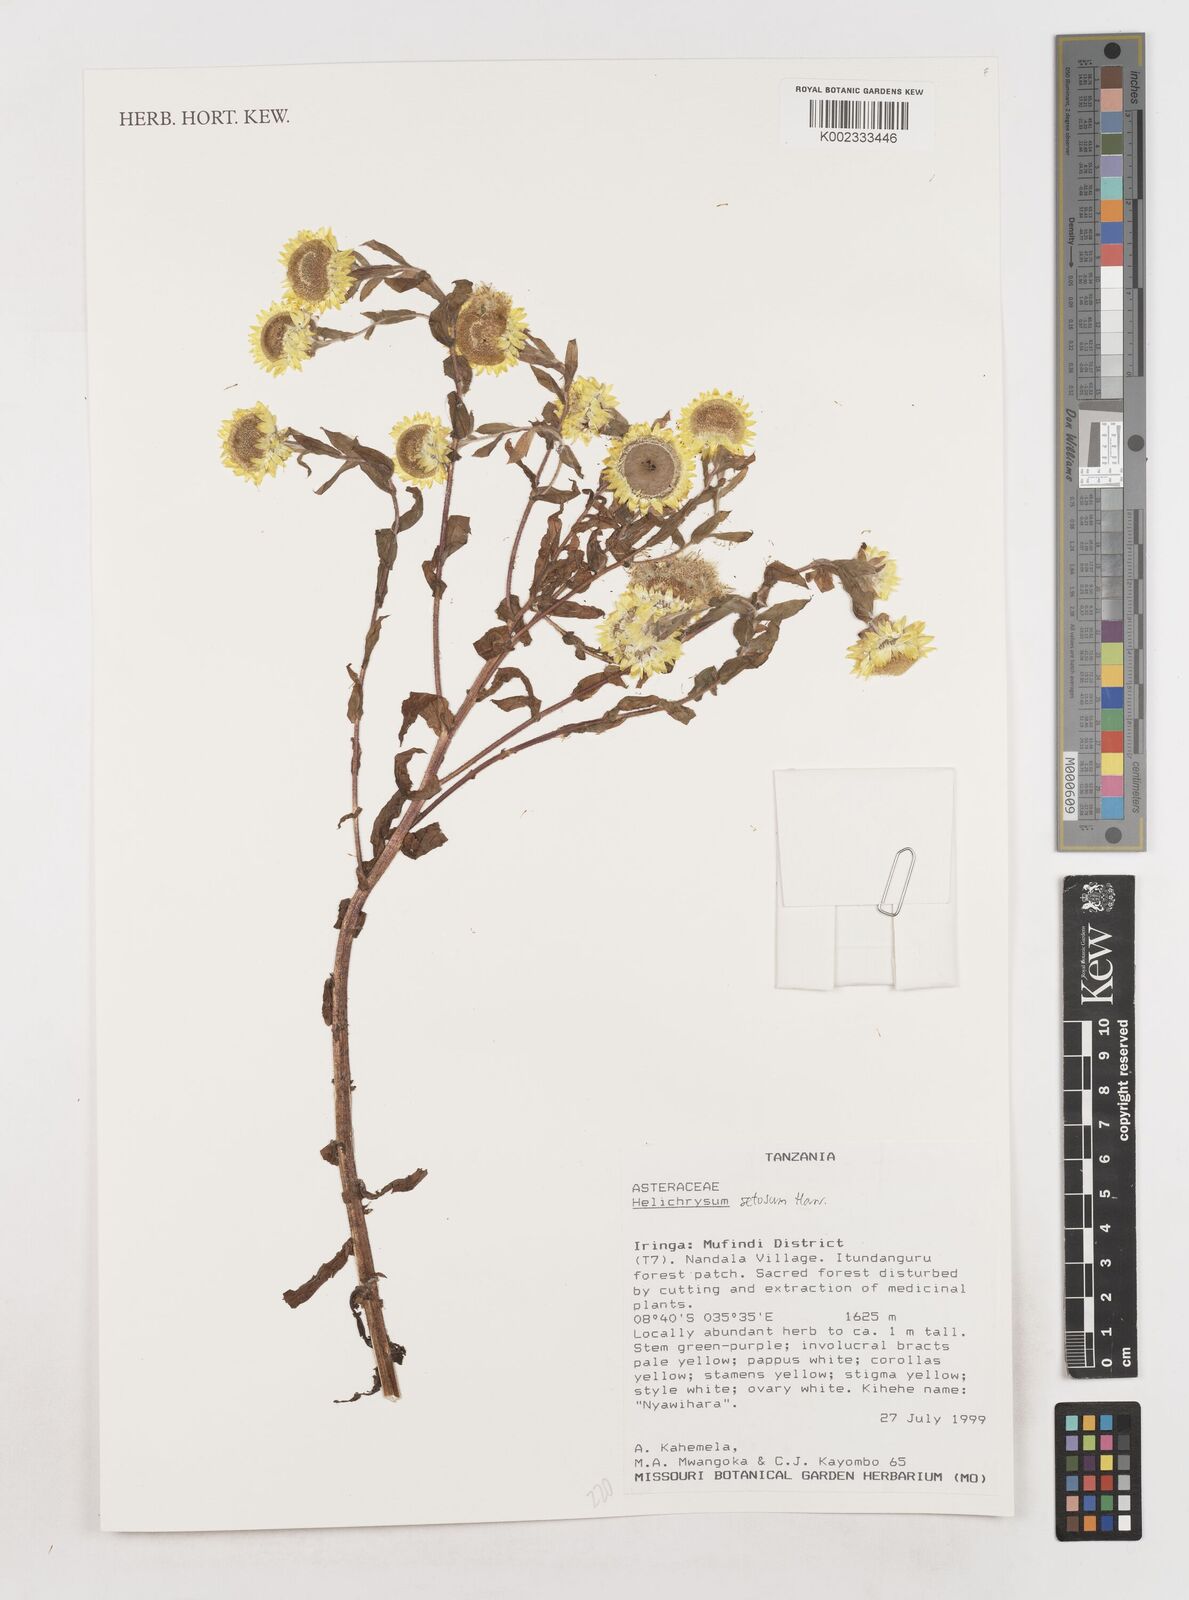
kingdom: Plantae
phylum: Tracheophyta
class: Magnoliopsida
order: Asterales
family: Asteraceae
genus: Helichrysum
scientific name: Helichrysum setosum
